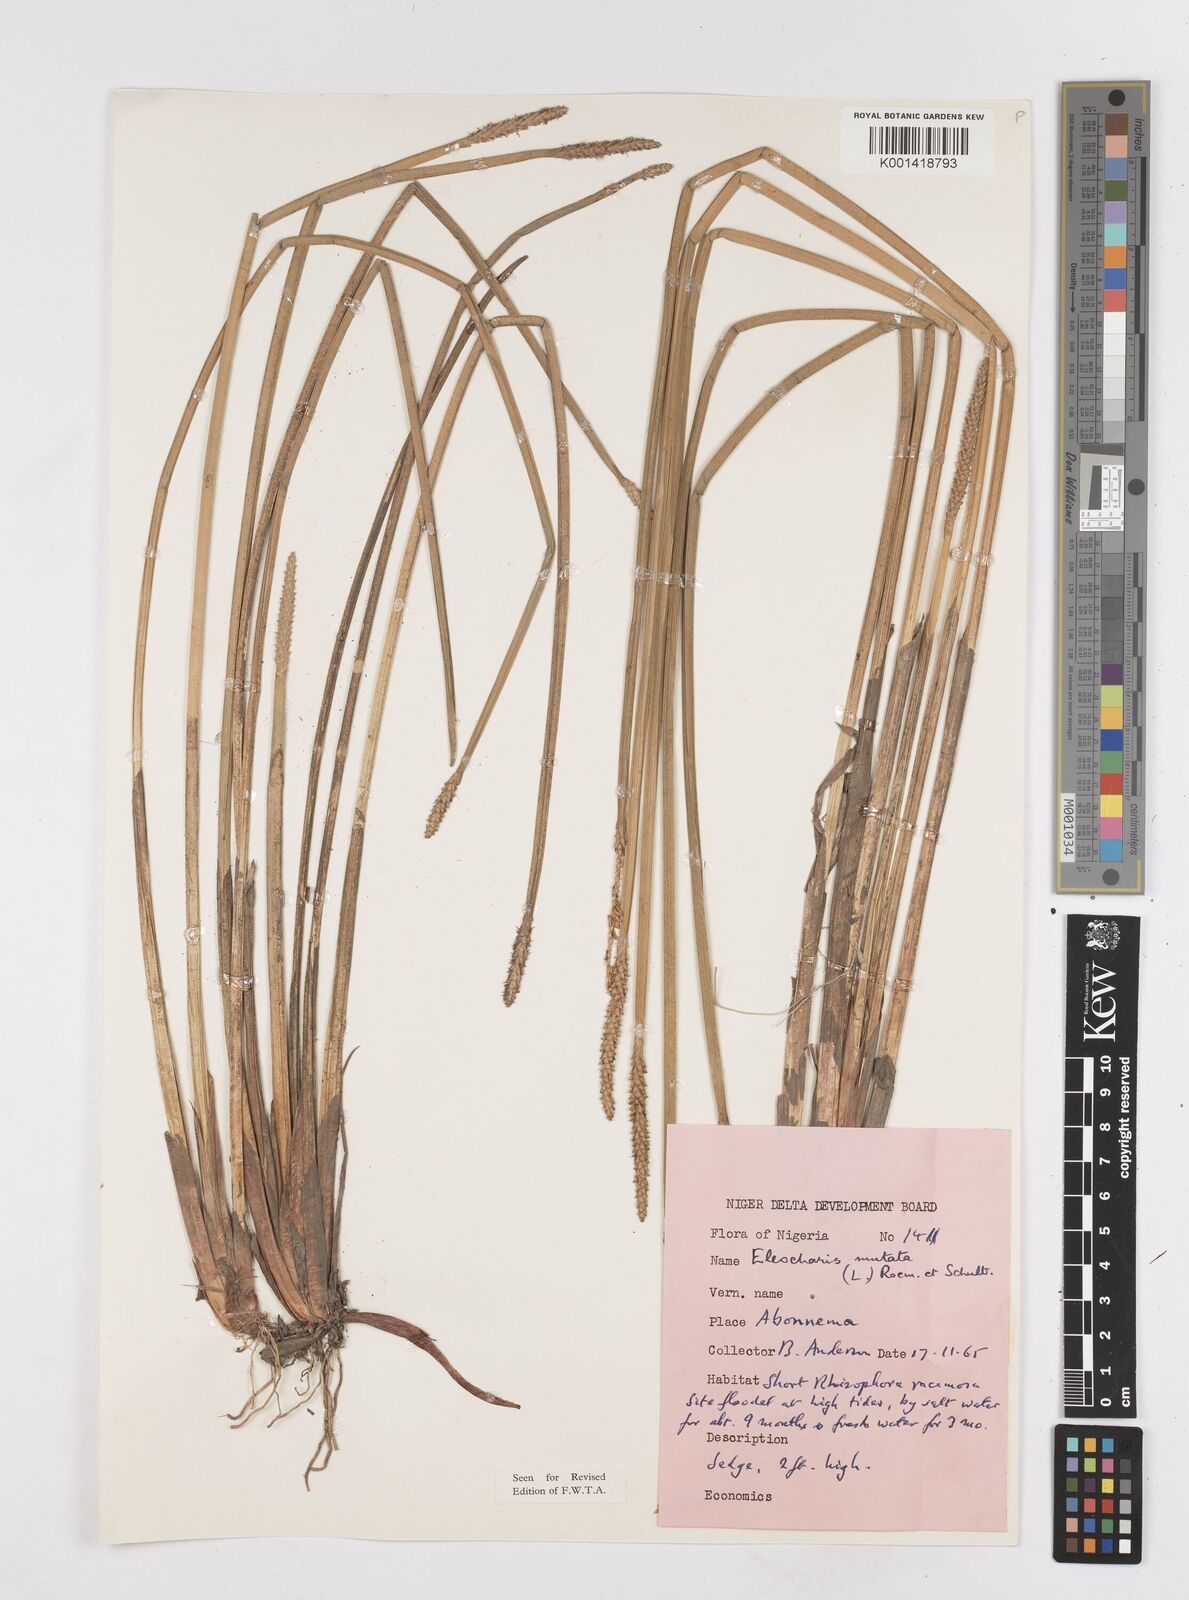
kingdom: Plantae
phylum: Tracheophyta
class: Liliopsida
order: Poales
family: Cyperaceae
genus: Eleocharis
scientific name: Eleocharis mutata
